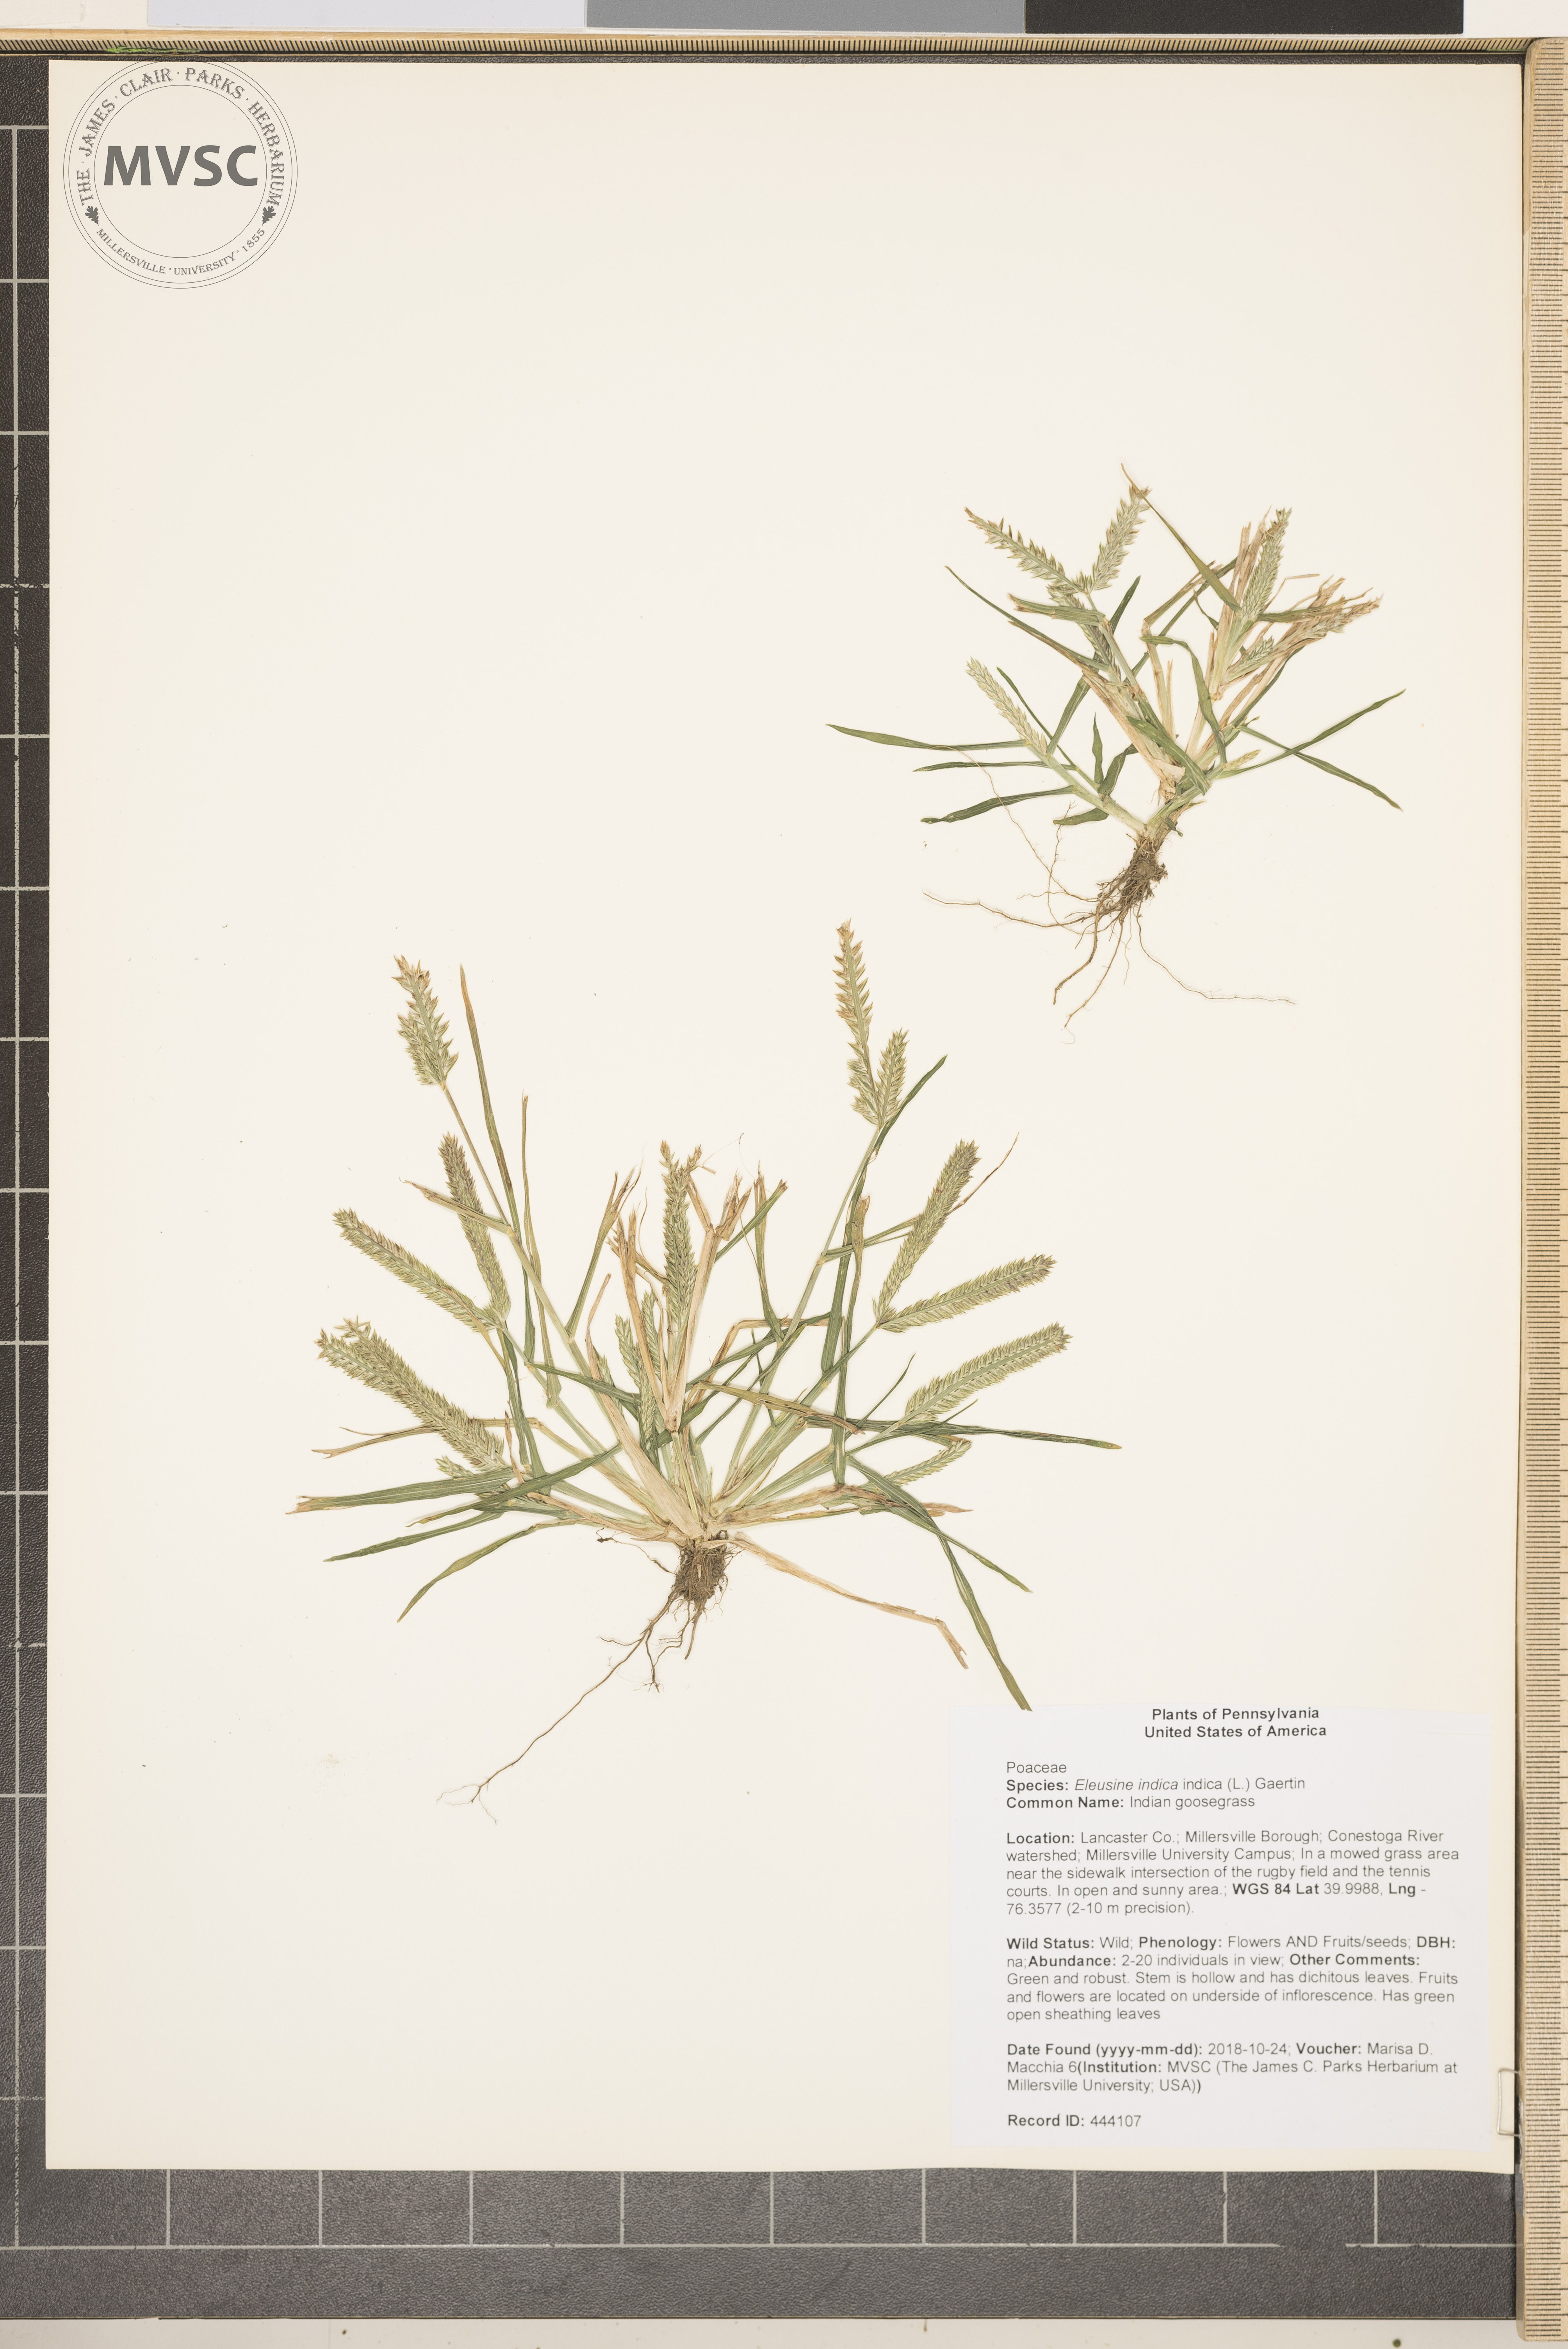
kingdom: Plantae
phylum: Tracheophyta
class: Liliopsida
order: Poales
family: Poaceae
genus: Eleusine
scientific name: Eleusine indica
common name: Indian goosegrass
